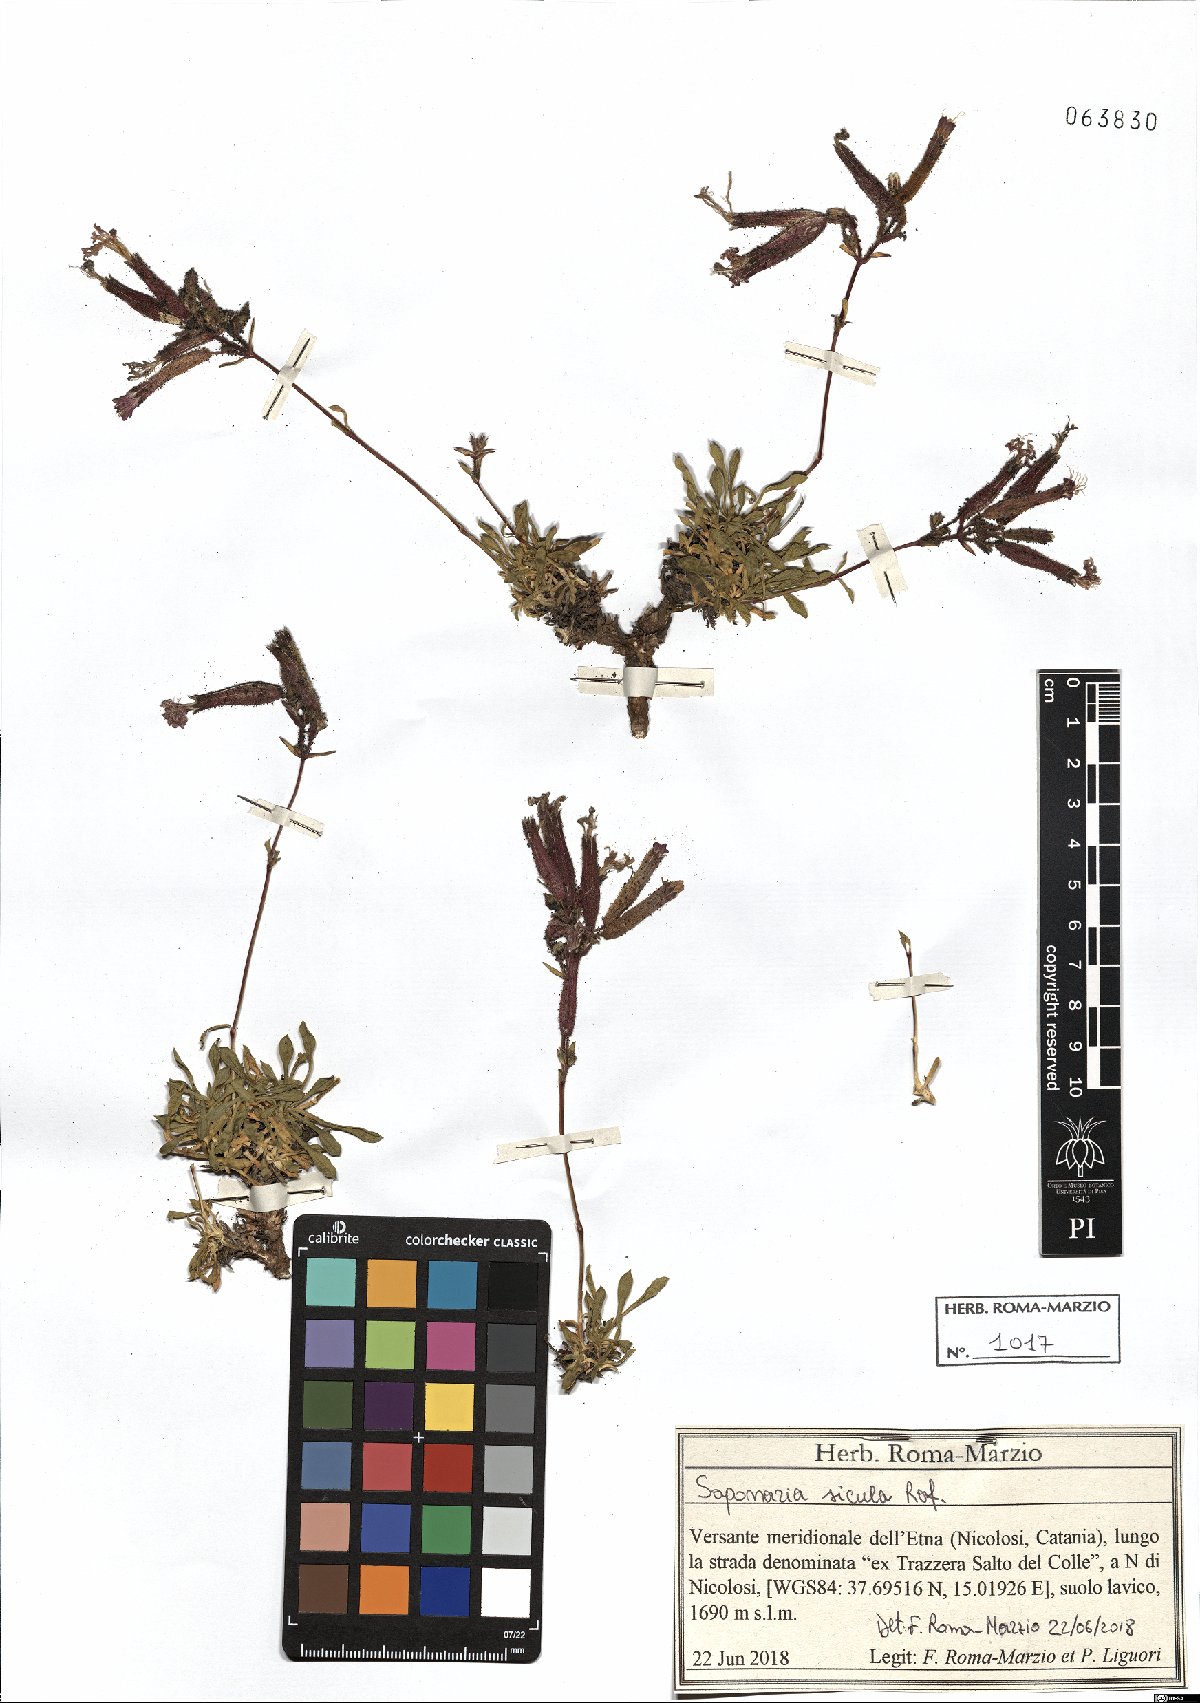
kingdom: Plantae
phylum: Tracheophyta
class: Magnoliopsida
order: Caryophyllales
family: Caryophyllaceae
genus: Saponaria
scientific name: Saponaria sicula
